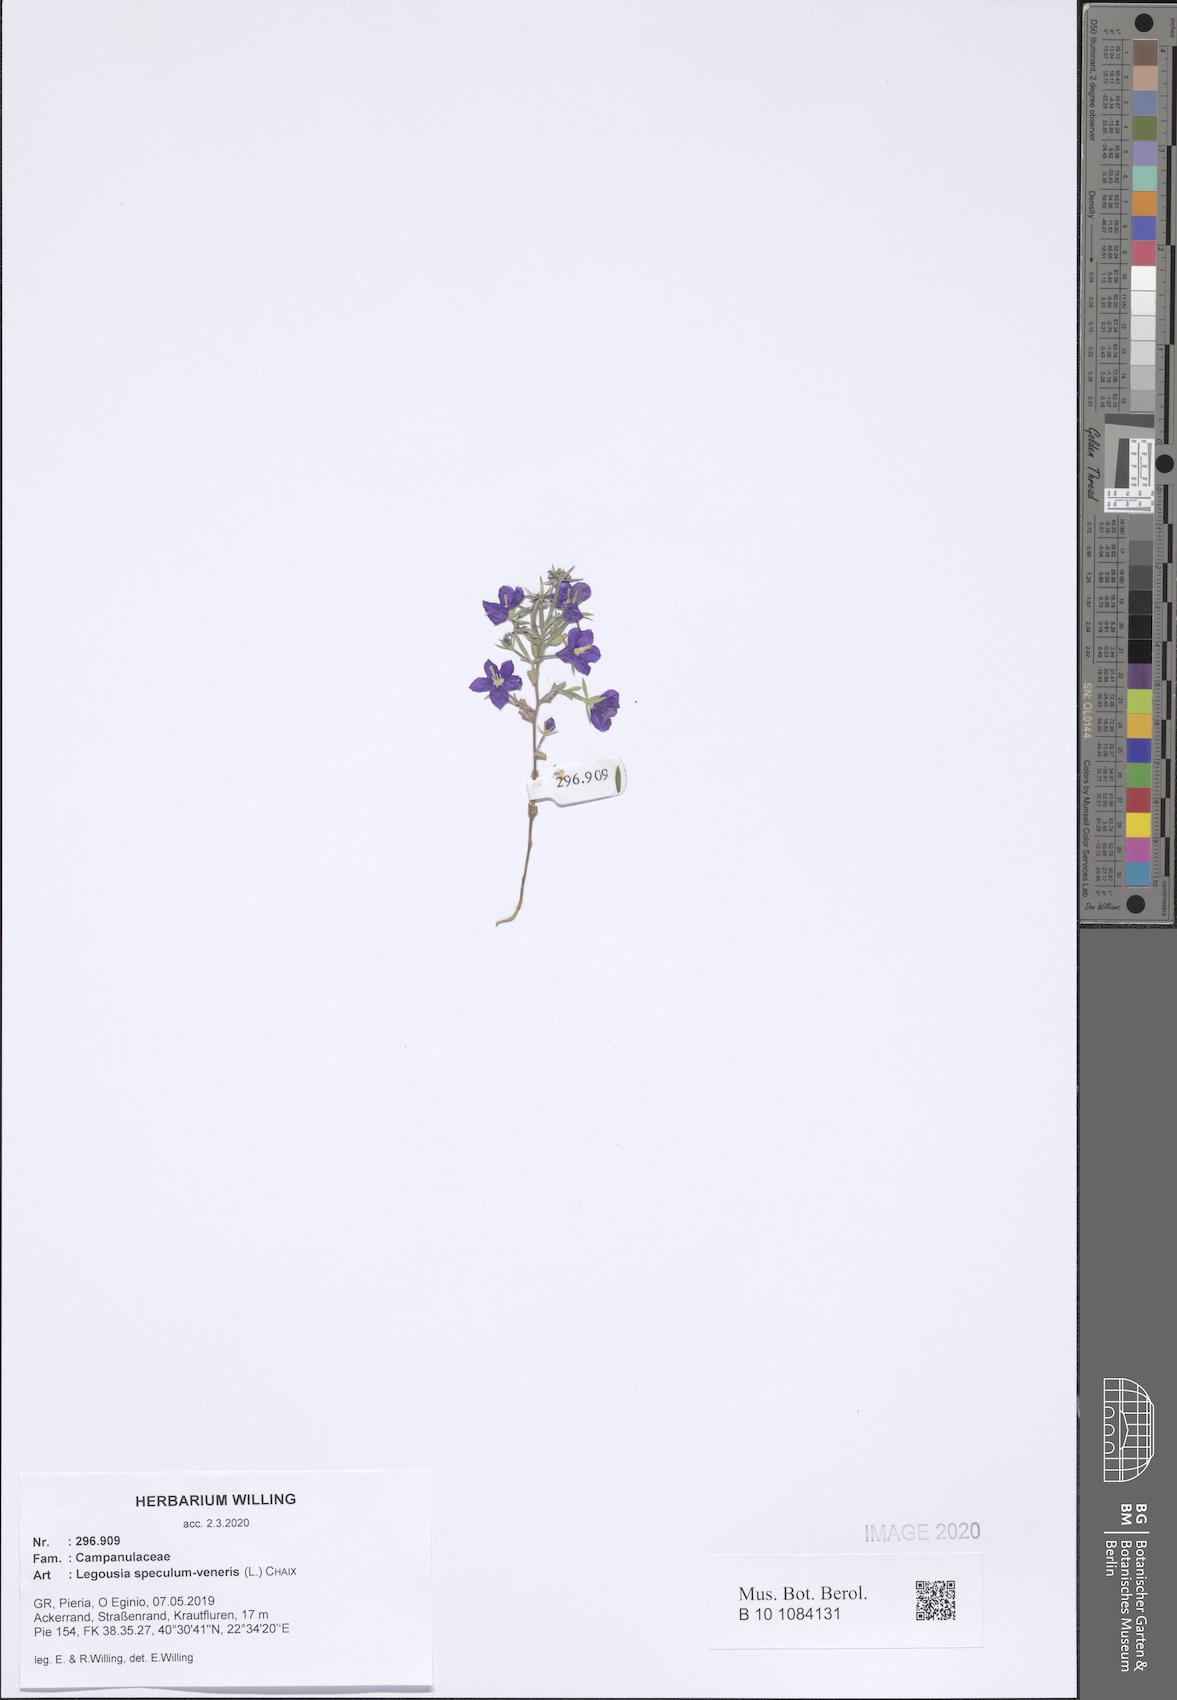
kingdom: Plantae
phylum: Tracheophyta
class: Magnoliopsida
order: Asterales
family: Campanulaceae
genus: Legousia
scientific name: Legousia speculum-veneris
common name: Large venus's-looking-glass
